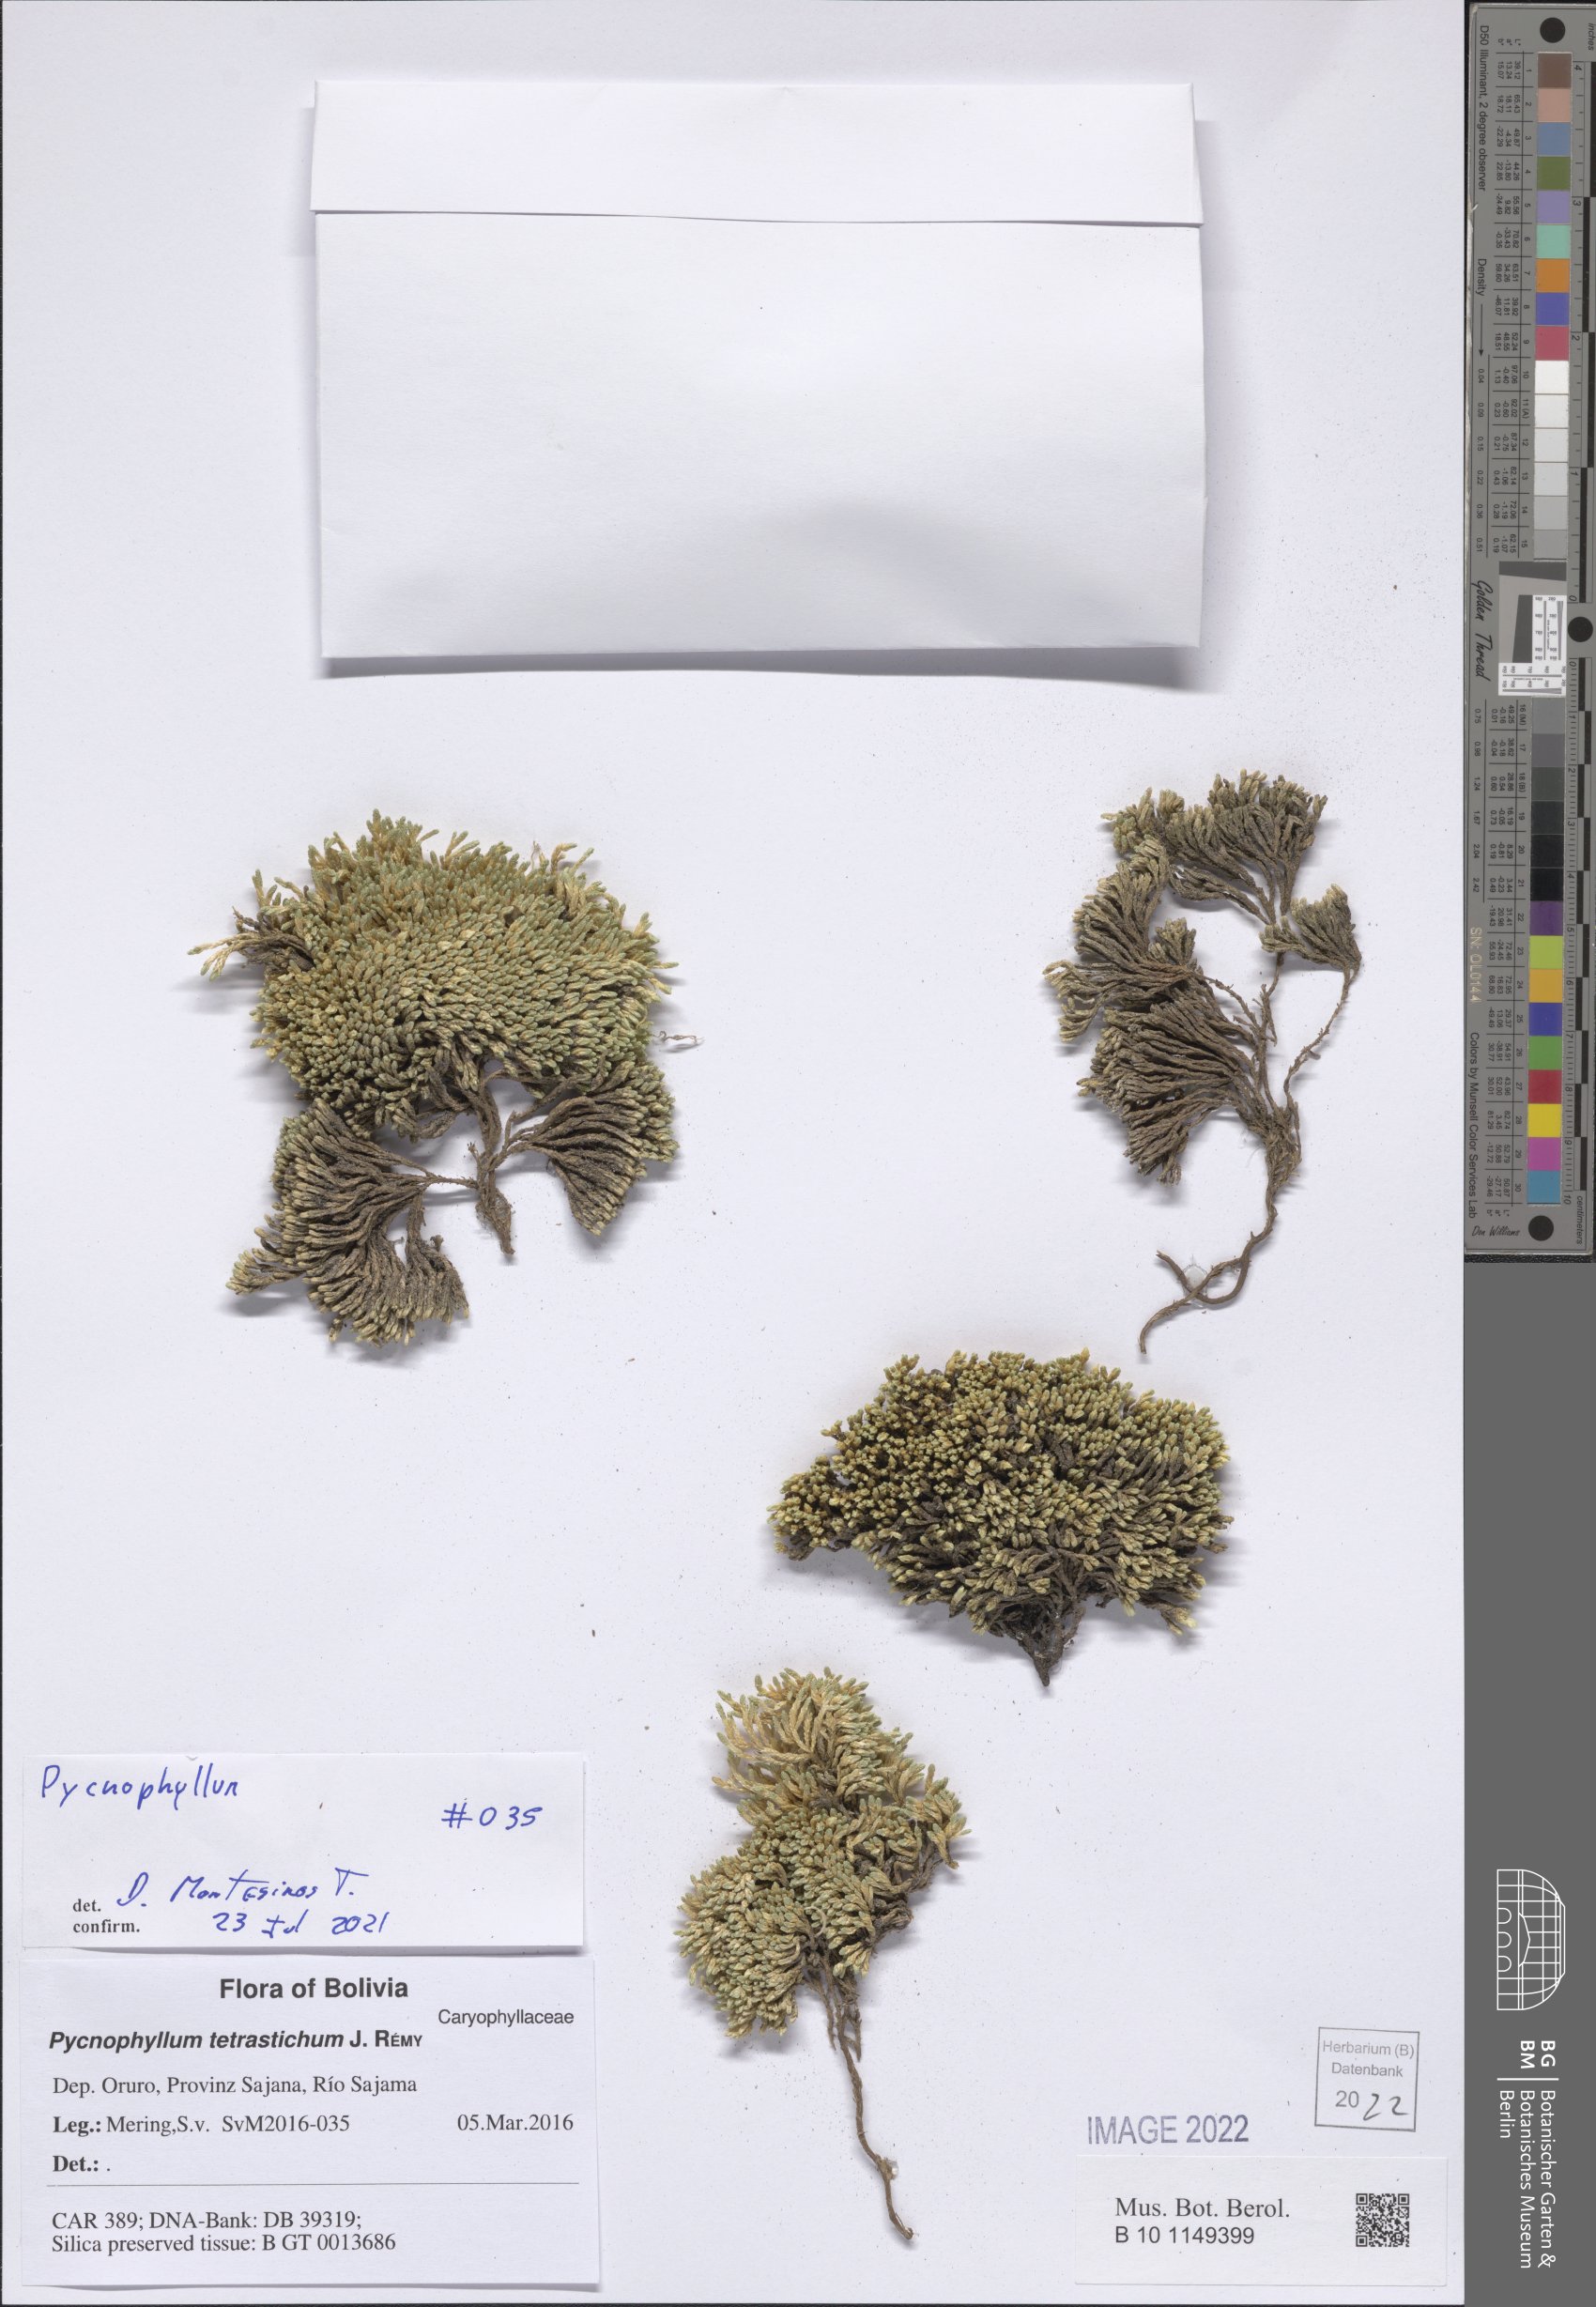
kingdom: Plantae
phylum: Tracheophyta
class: Magnoliopsida
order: Caryophyllales
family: Caryophyllaceae
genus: Pycnophyllum
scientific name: Pycnophyllum
